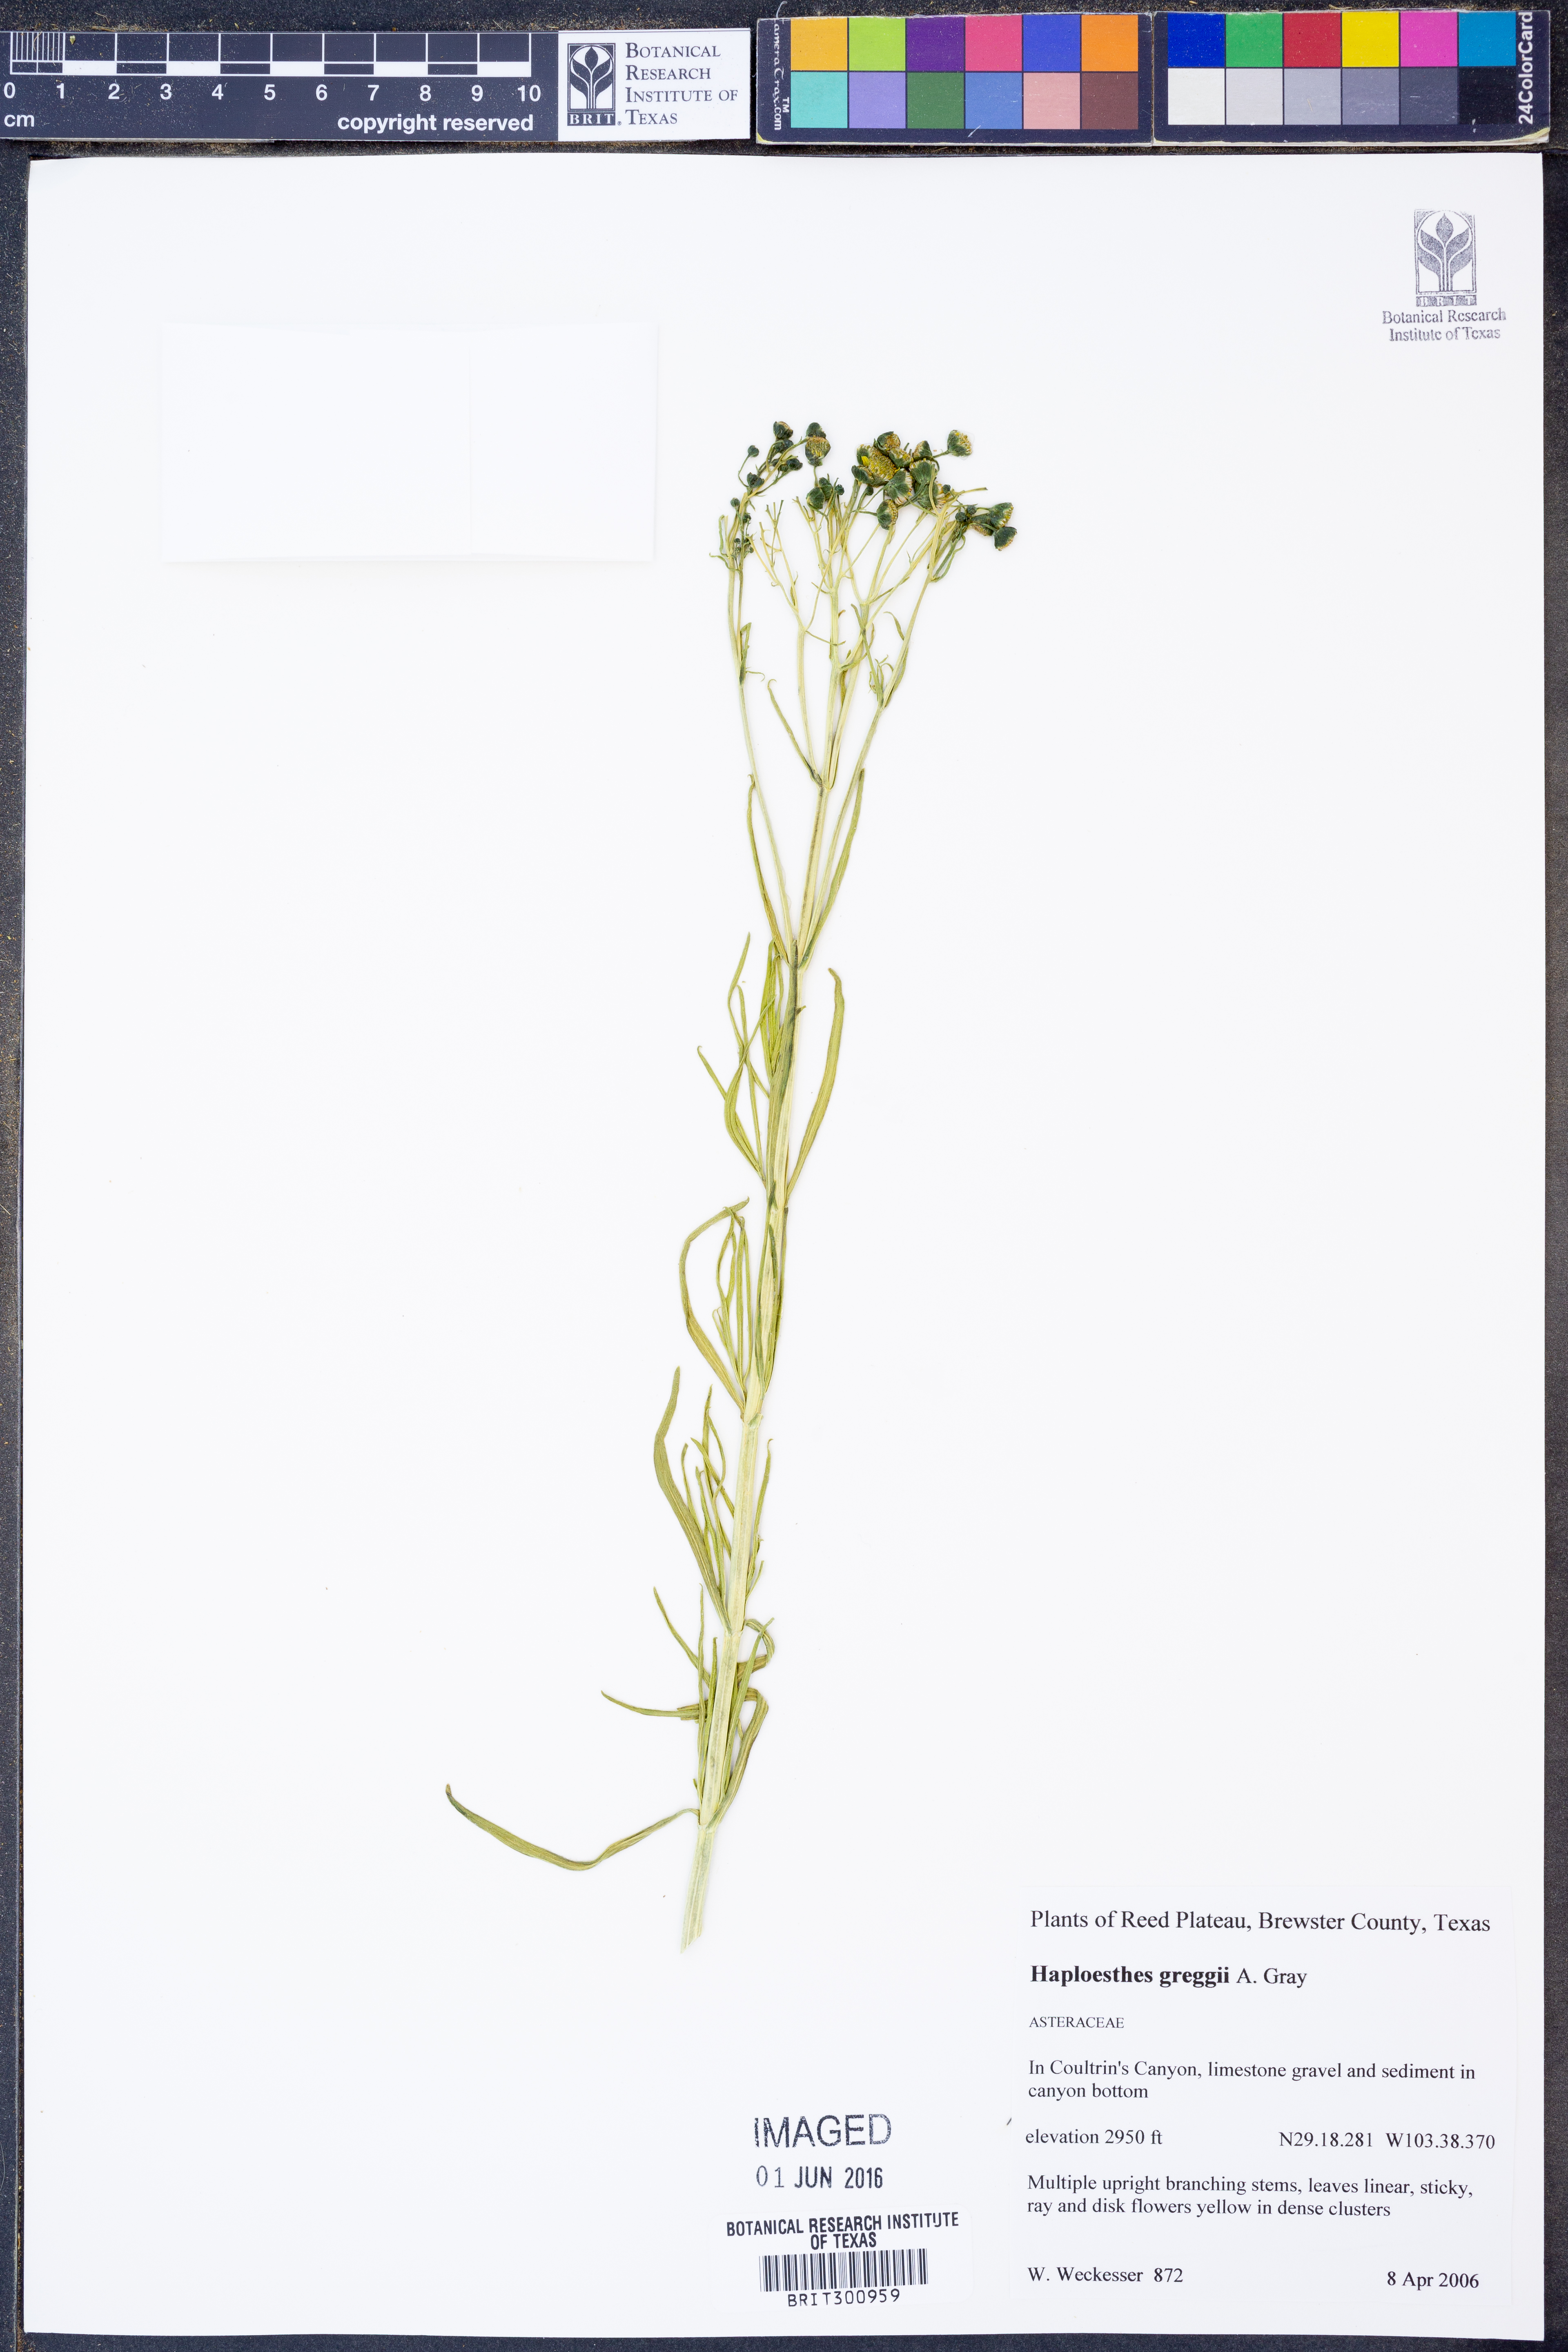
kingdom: Plantae
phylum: Tracheophyta
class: Magnoliopsida
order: Asterales
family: Asteraceae
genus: Haploesthes
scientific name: Haploesthes greggii
